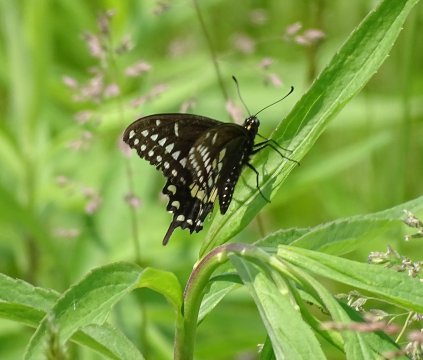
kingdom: Animalia
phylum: Arthropoda
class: Insecta
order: Lepidoptera
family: Papilionidae
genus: Papilio
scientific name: Papilio polyxenes
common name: Black Swallowtail
